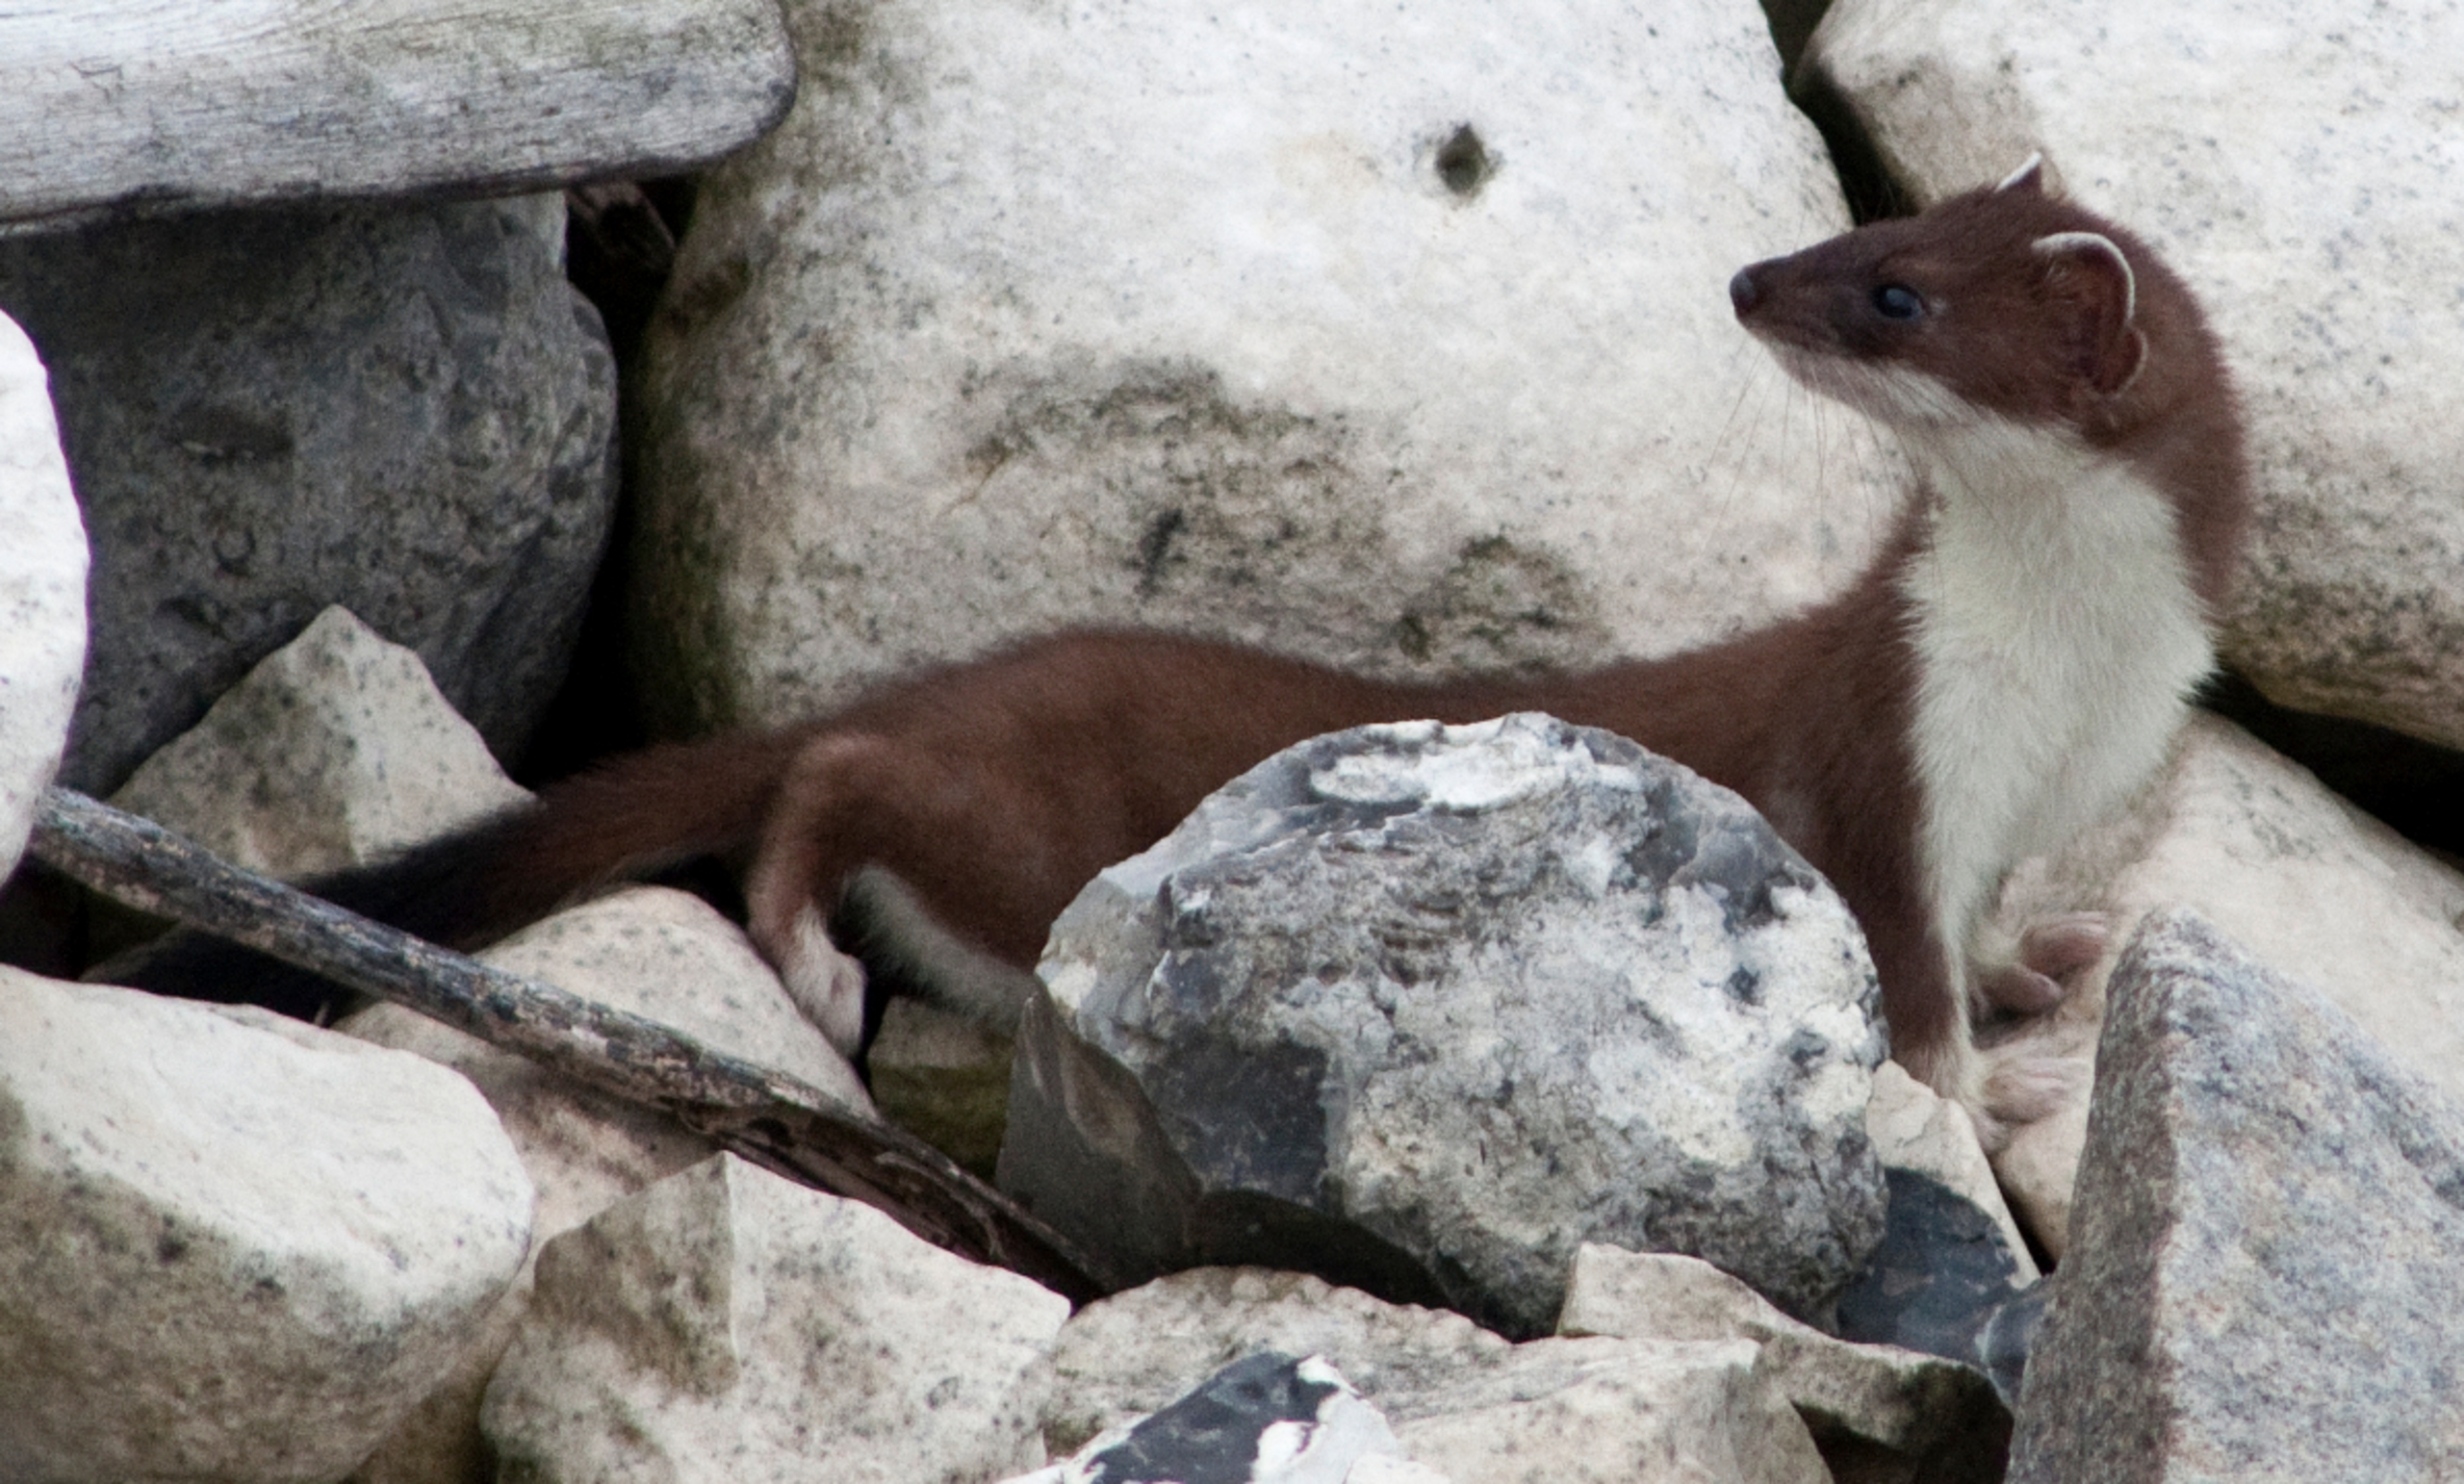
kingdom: Animalia
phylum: Chordata
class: Mammalia
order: Carnivora
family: Mustelidae
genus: Mustela
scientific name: Mustela erminea
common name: Lækat
